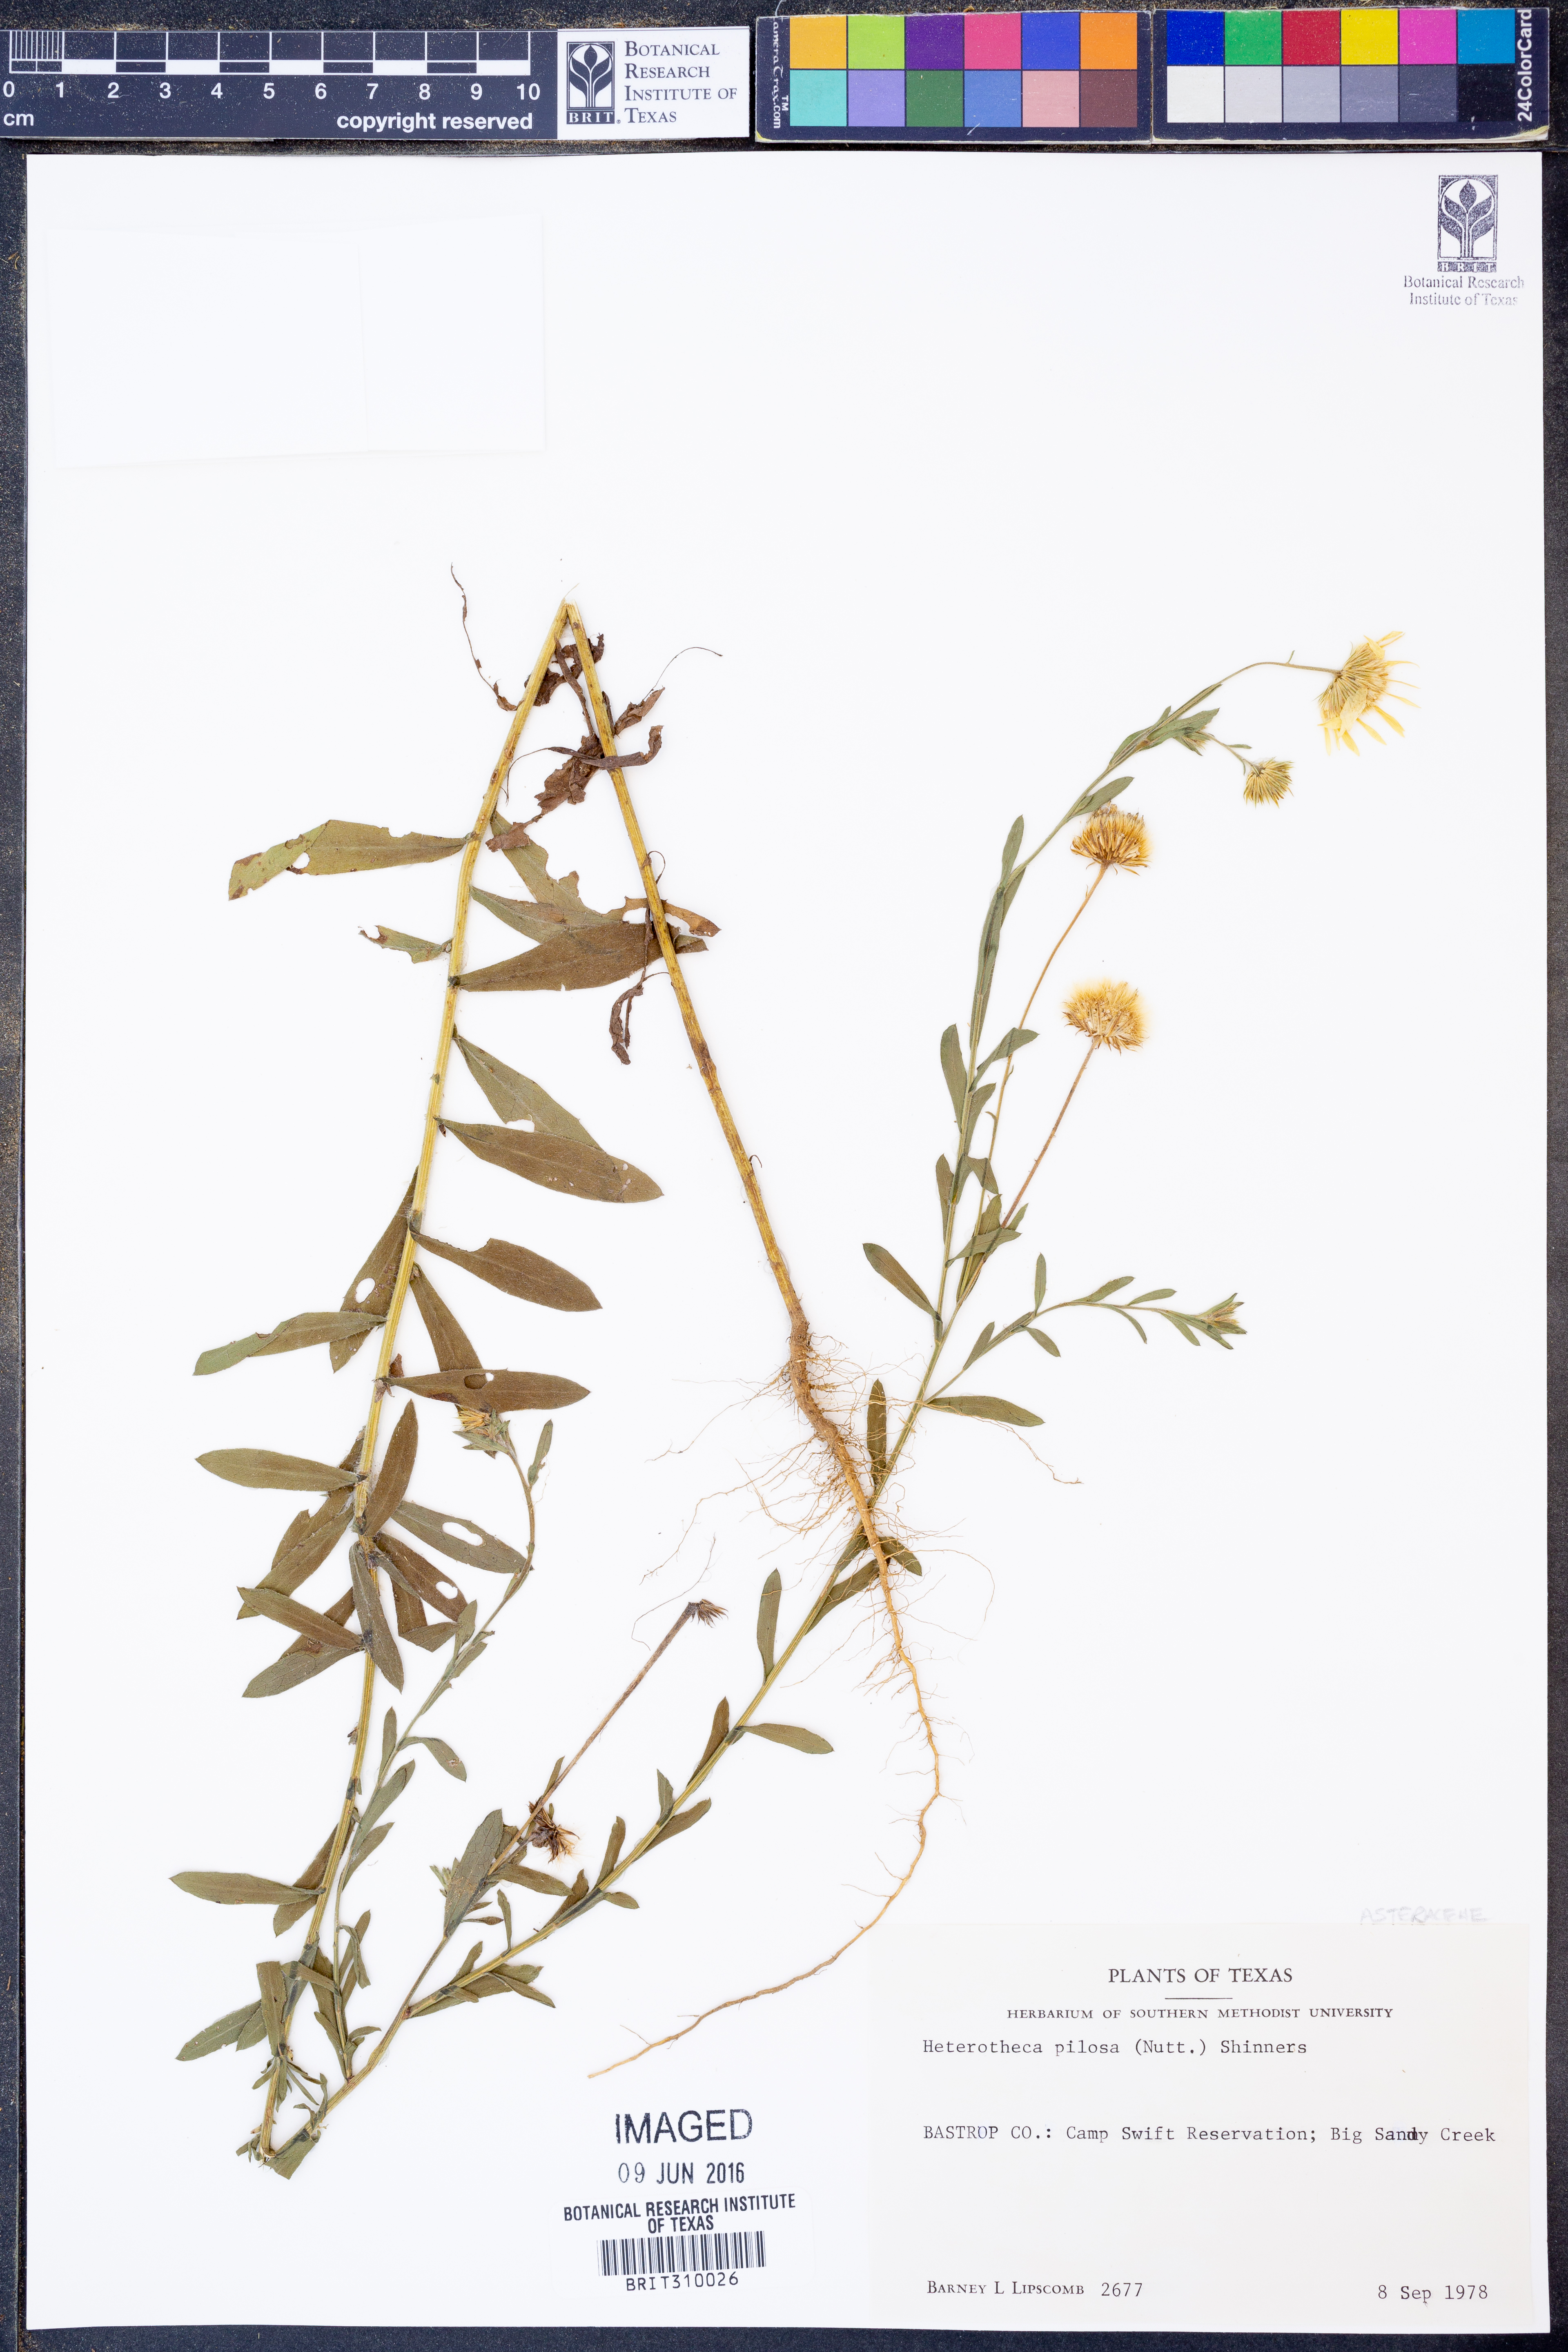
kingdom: Plantae
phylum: Tracheophyta
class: Magnoliopsida
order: Asterales
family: Asteraceae
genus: Bradburia
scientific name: Bradburia pilosa
